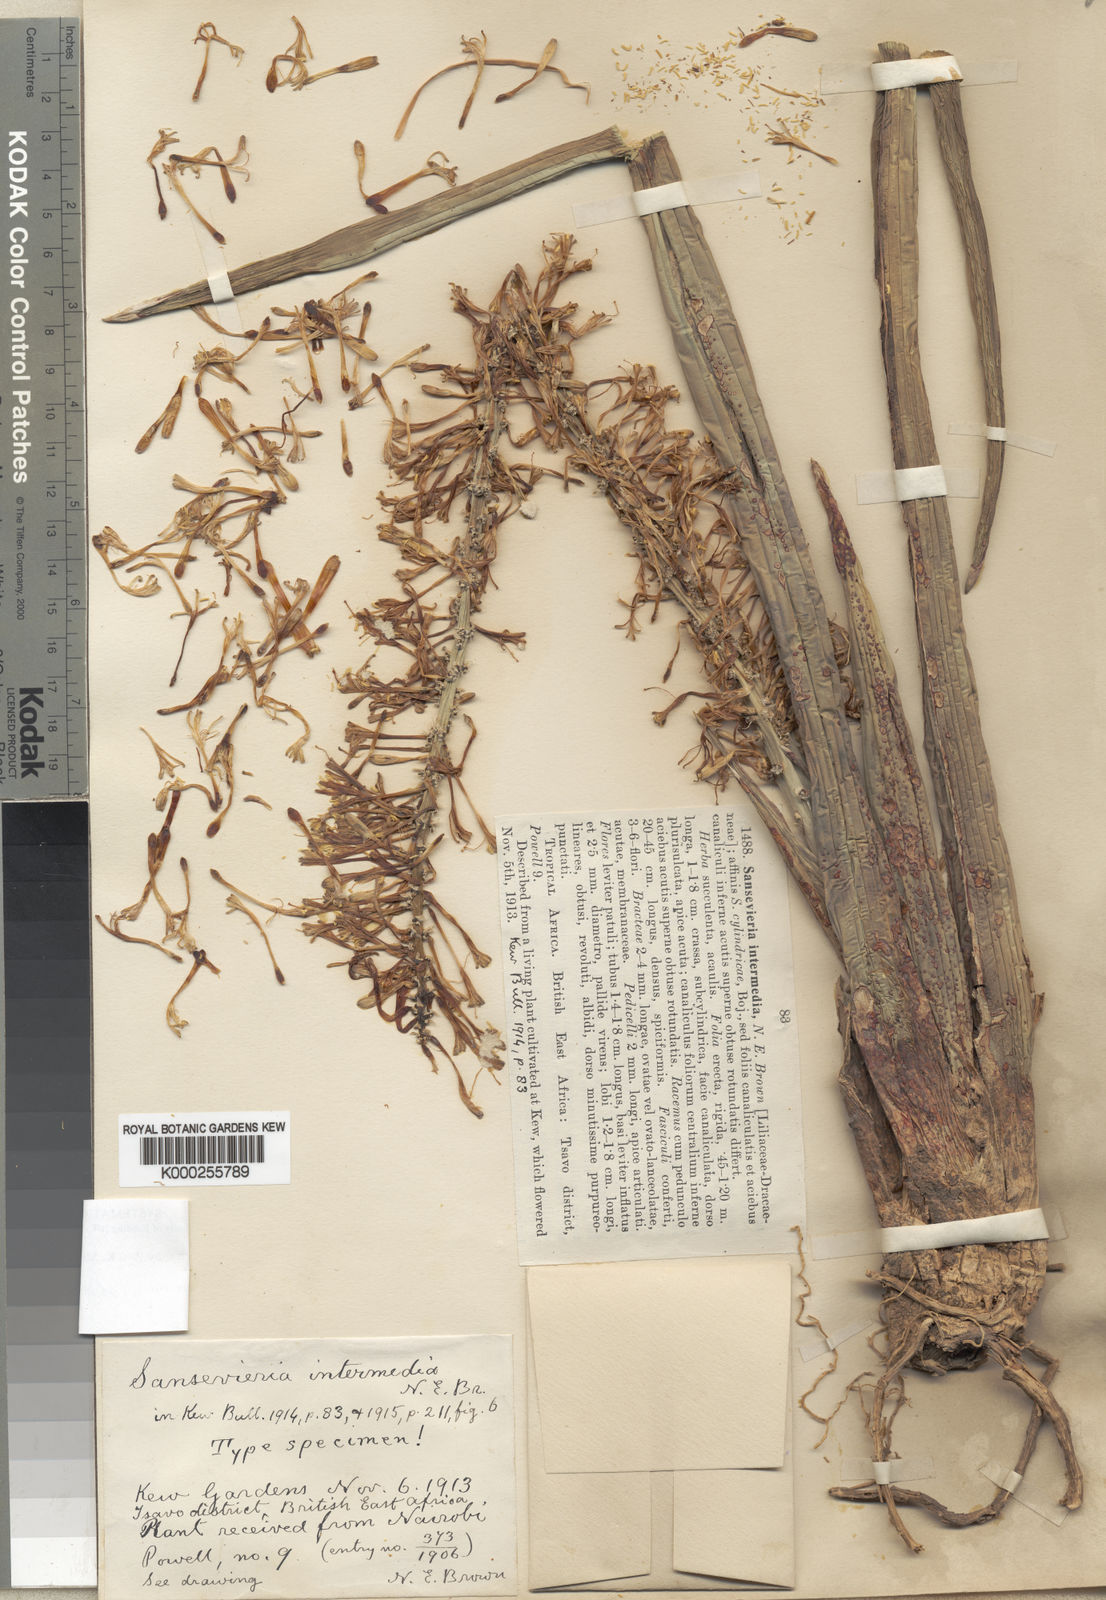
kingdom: Plantae
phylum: Tracheophyta
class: Liliopsida
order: Asparagales
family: Asparagaceae
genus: Dracaena
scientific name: Dracaena volkensii
